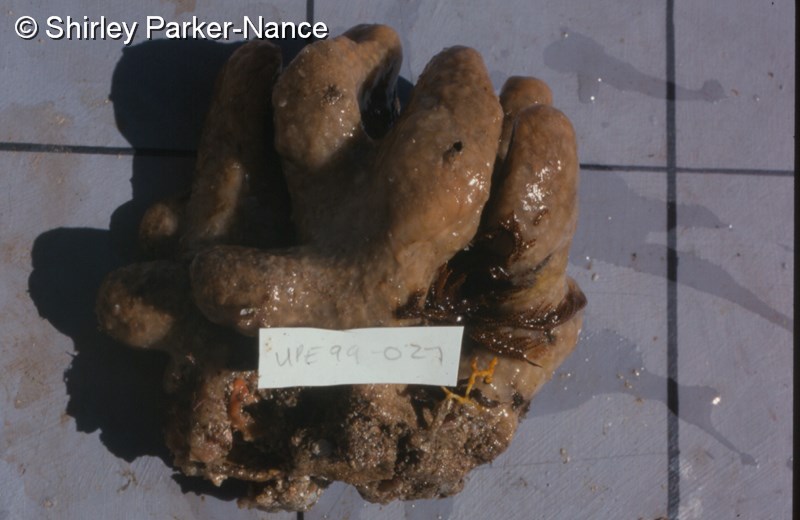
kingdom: Animalia
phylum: Chordata
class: Ascidiacea
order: Aplousobranchia
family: Pseudodistomidae
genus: Pseudodistoma
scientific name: Pseudodistoma
